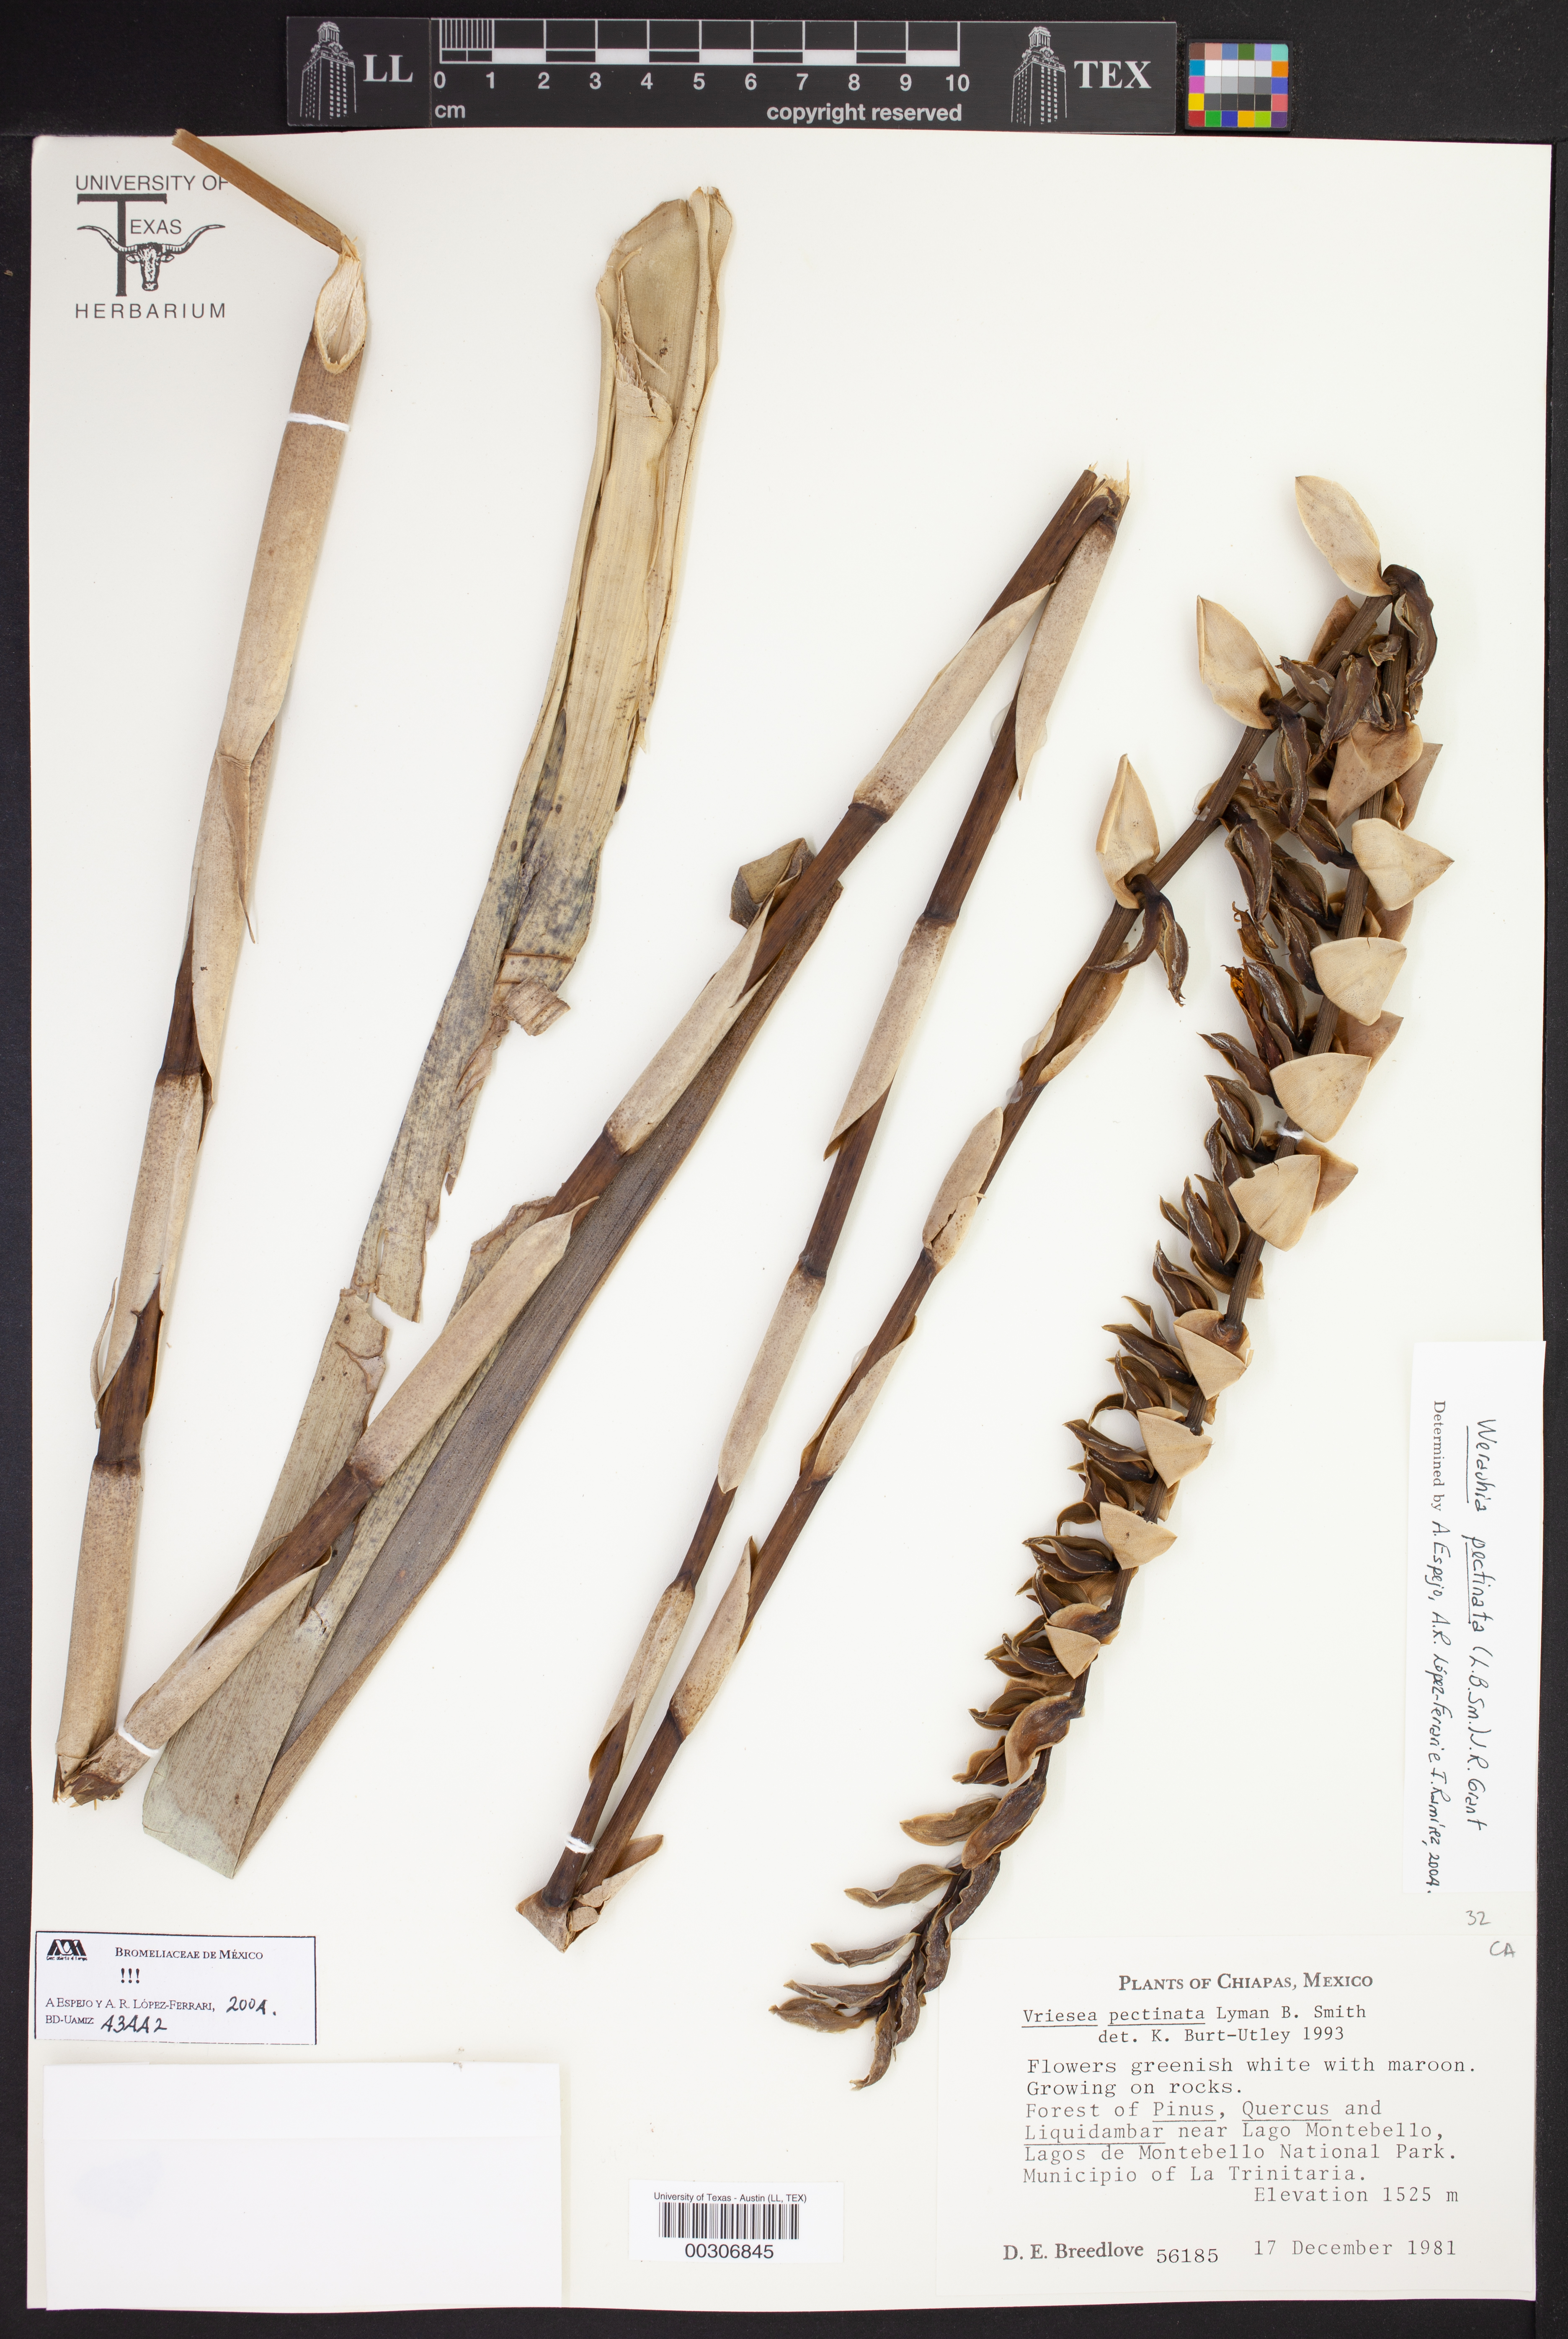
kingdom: Plantae
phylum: Tracheophyta
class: Liliopsida
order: Poales
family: Bromeliaceae
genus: Werauhia
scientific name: Werauhia pectinata
